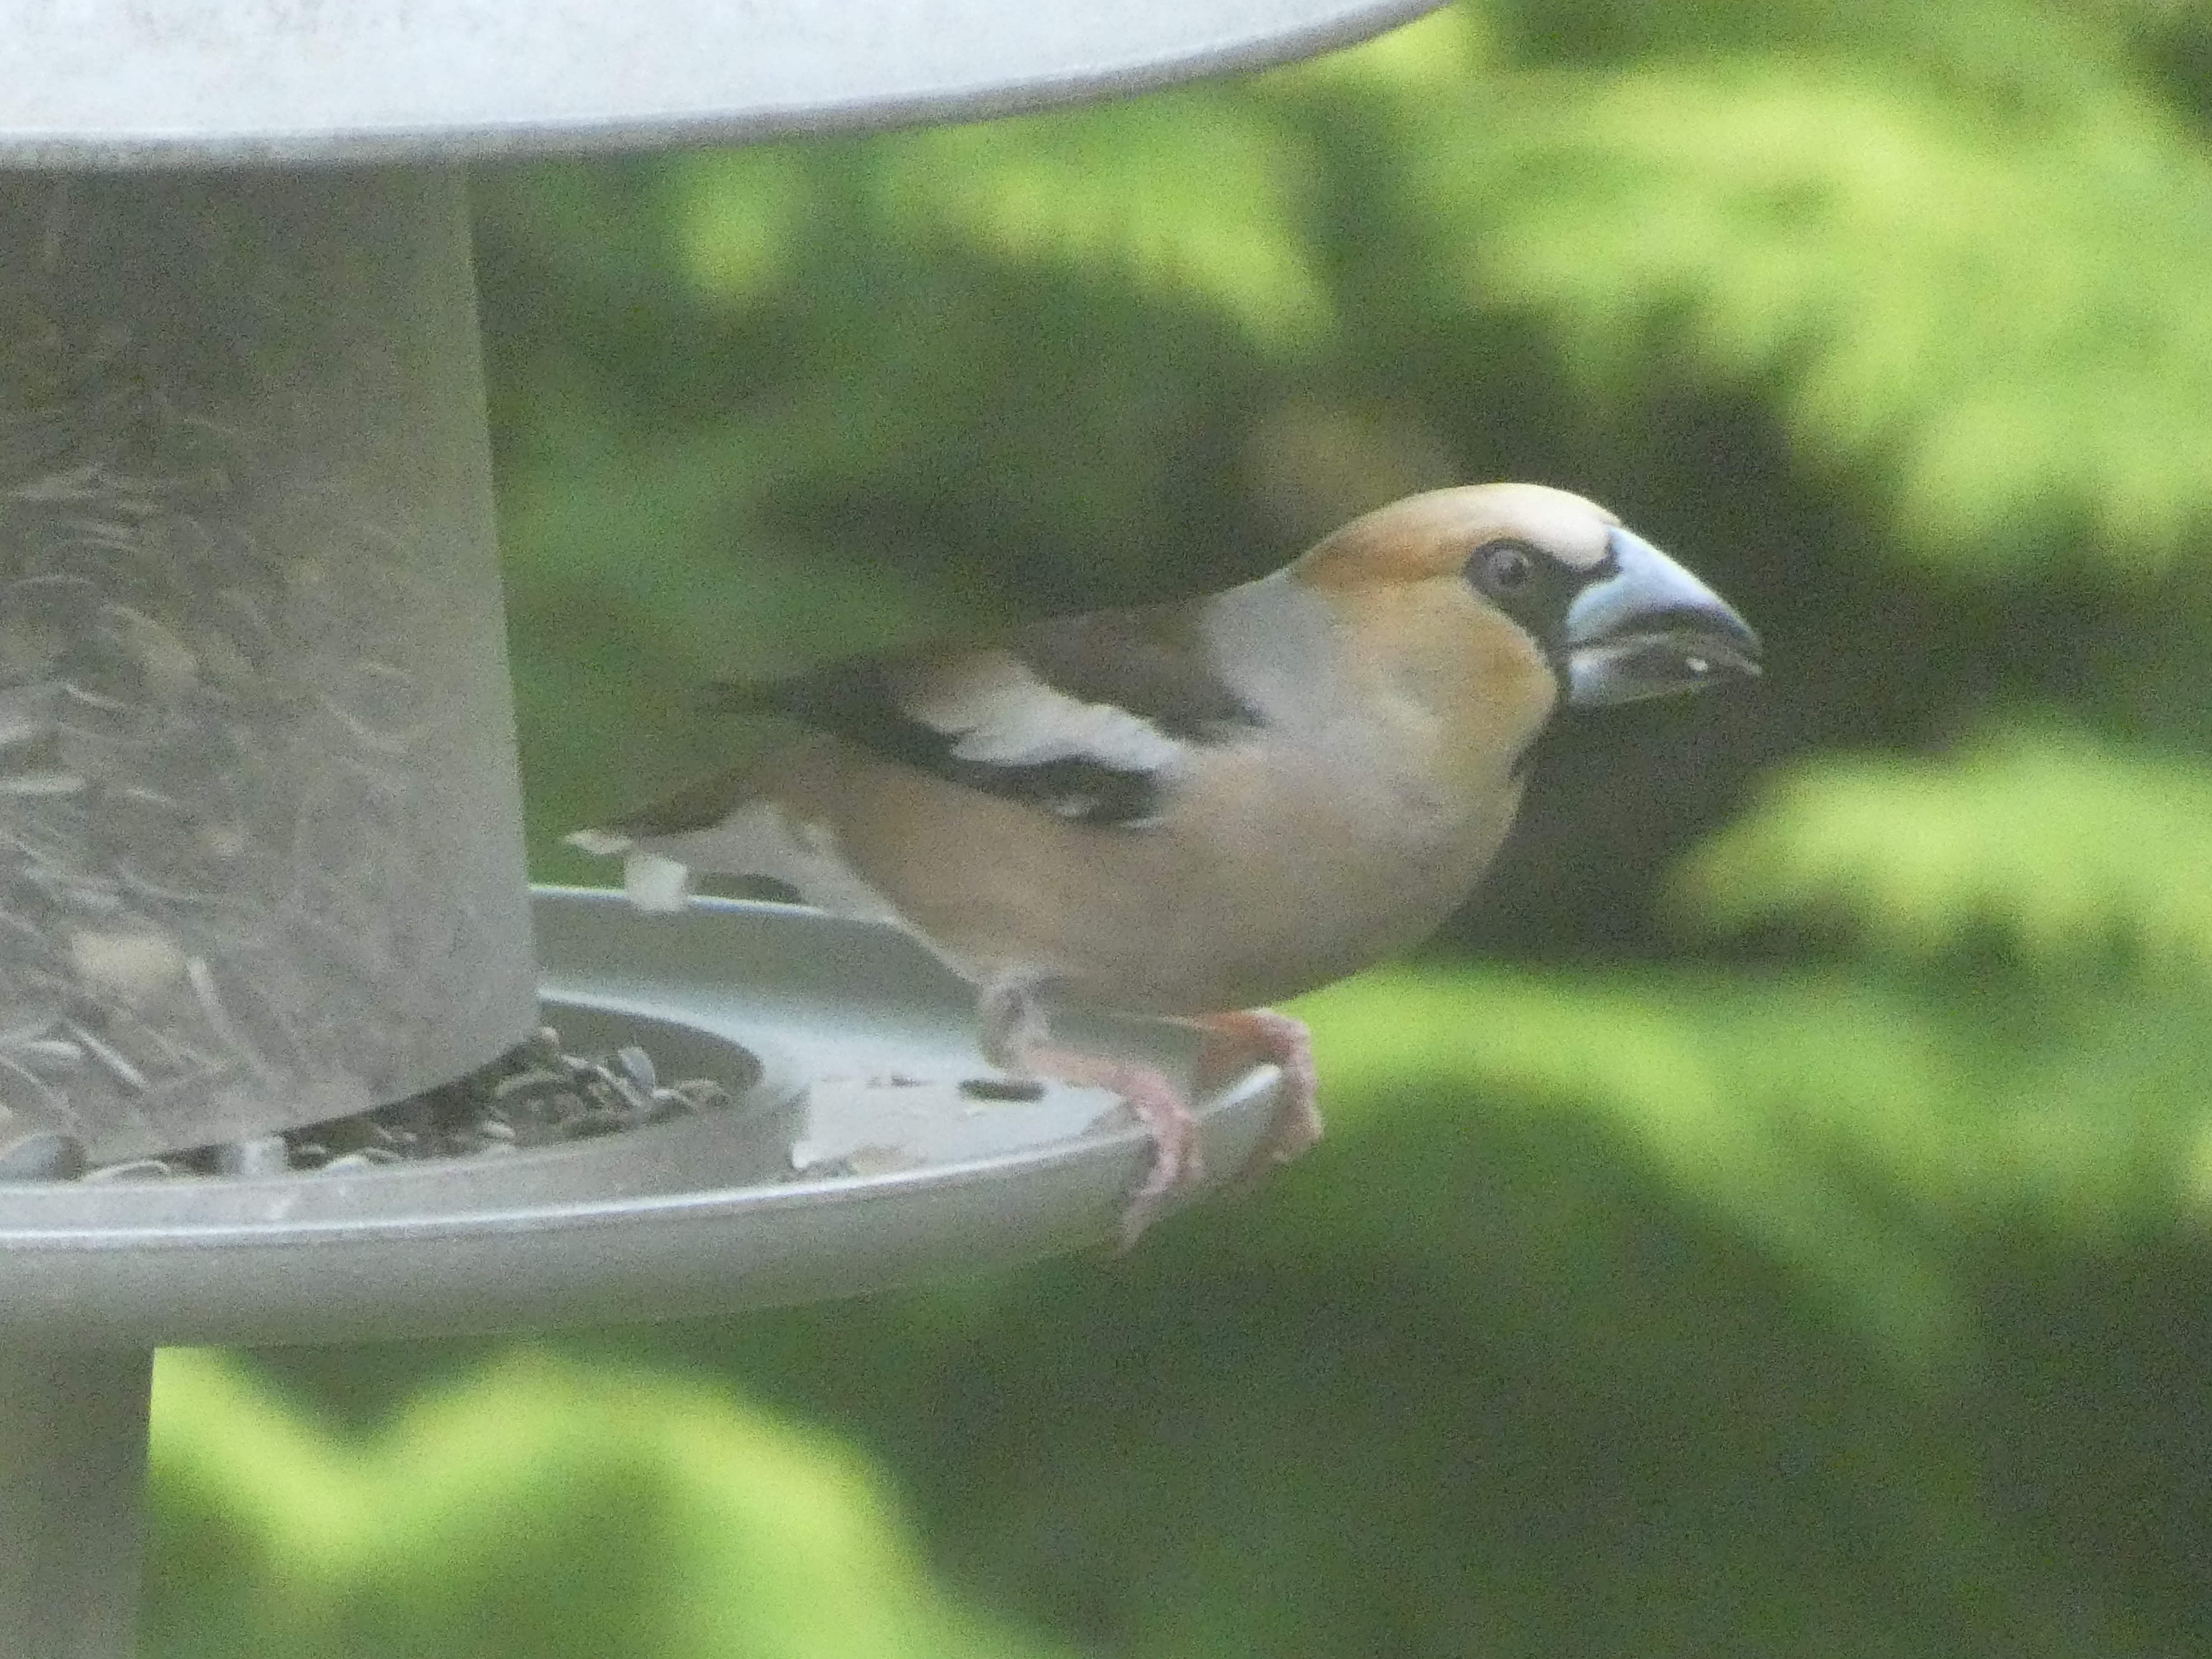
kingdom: Animalia
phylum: Chordata
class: Aves
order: Passeriformes
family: Fringillidae
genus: Coccothraustes
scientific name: Coccothraustes coccothraustes
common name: Kernebider
